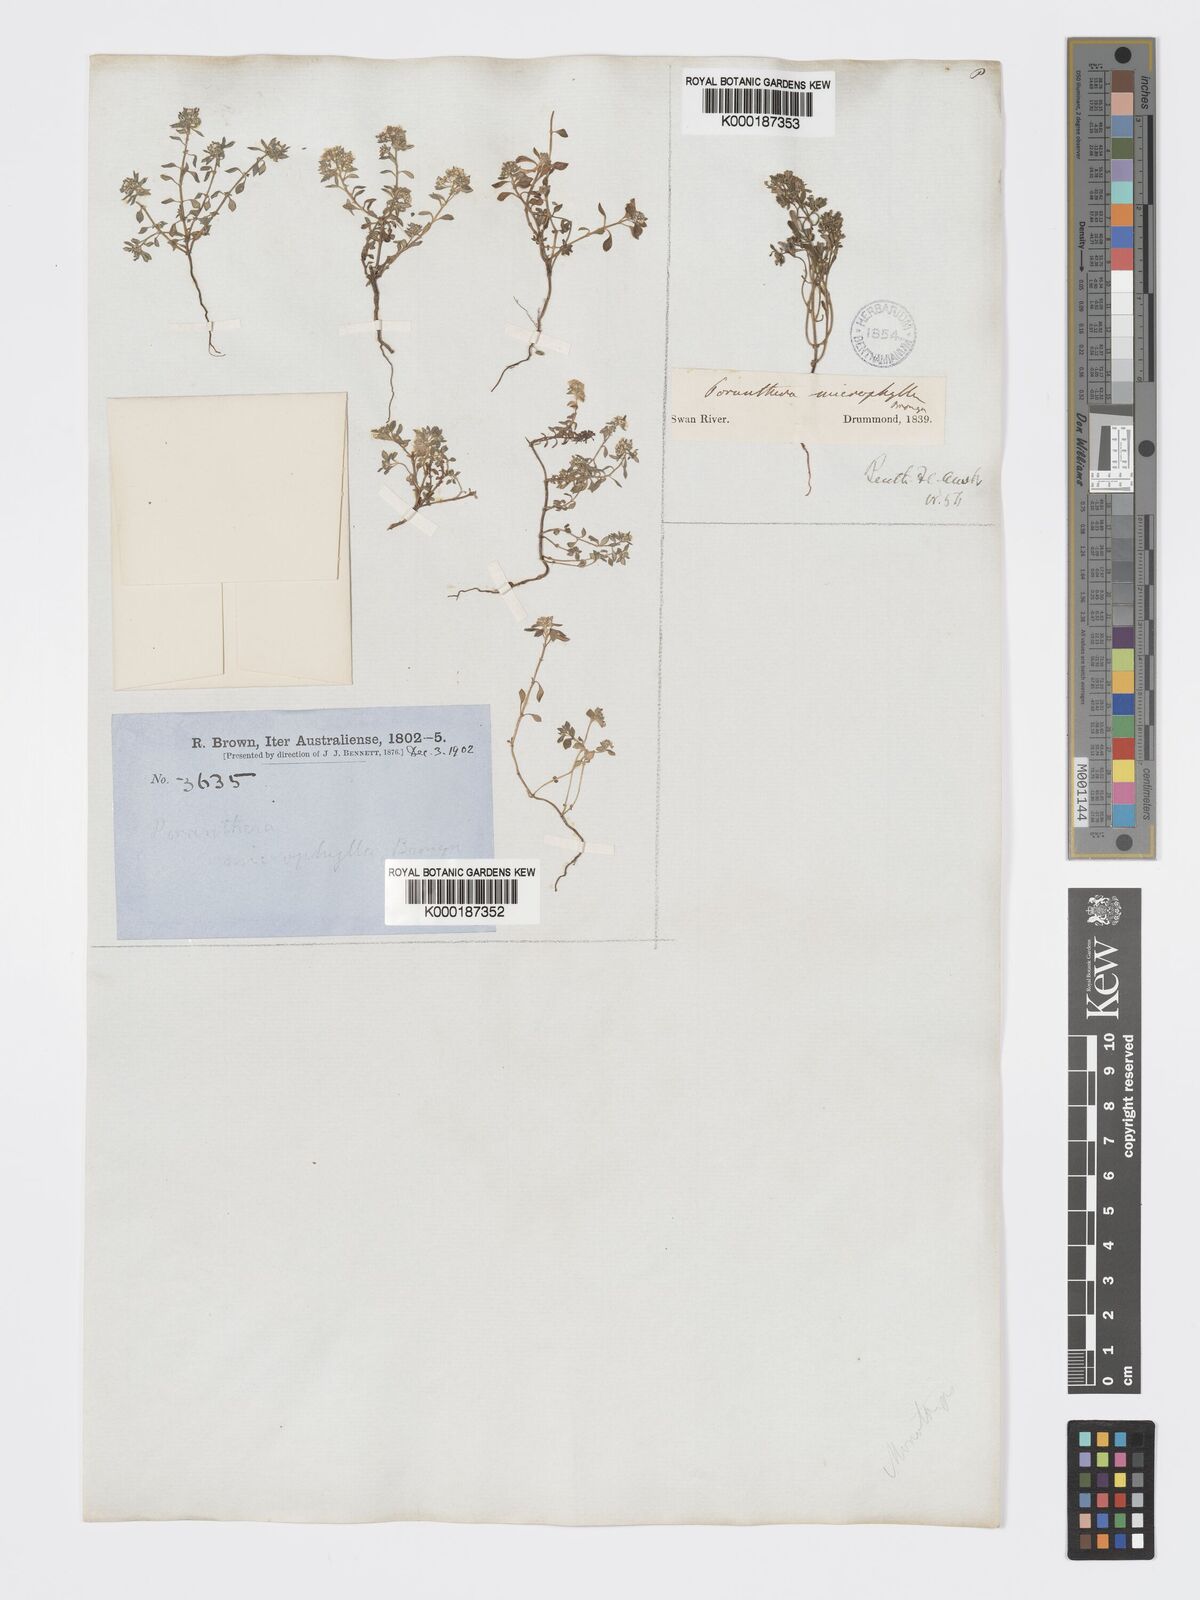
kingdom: Plantae
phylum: Tracheophyta
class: Magnoliopsida
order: Malpighiales
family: Phyllanthaceae
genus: Poranthera
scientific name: Poranthera microphylla
